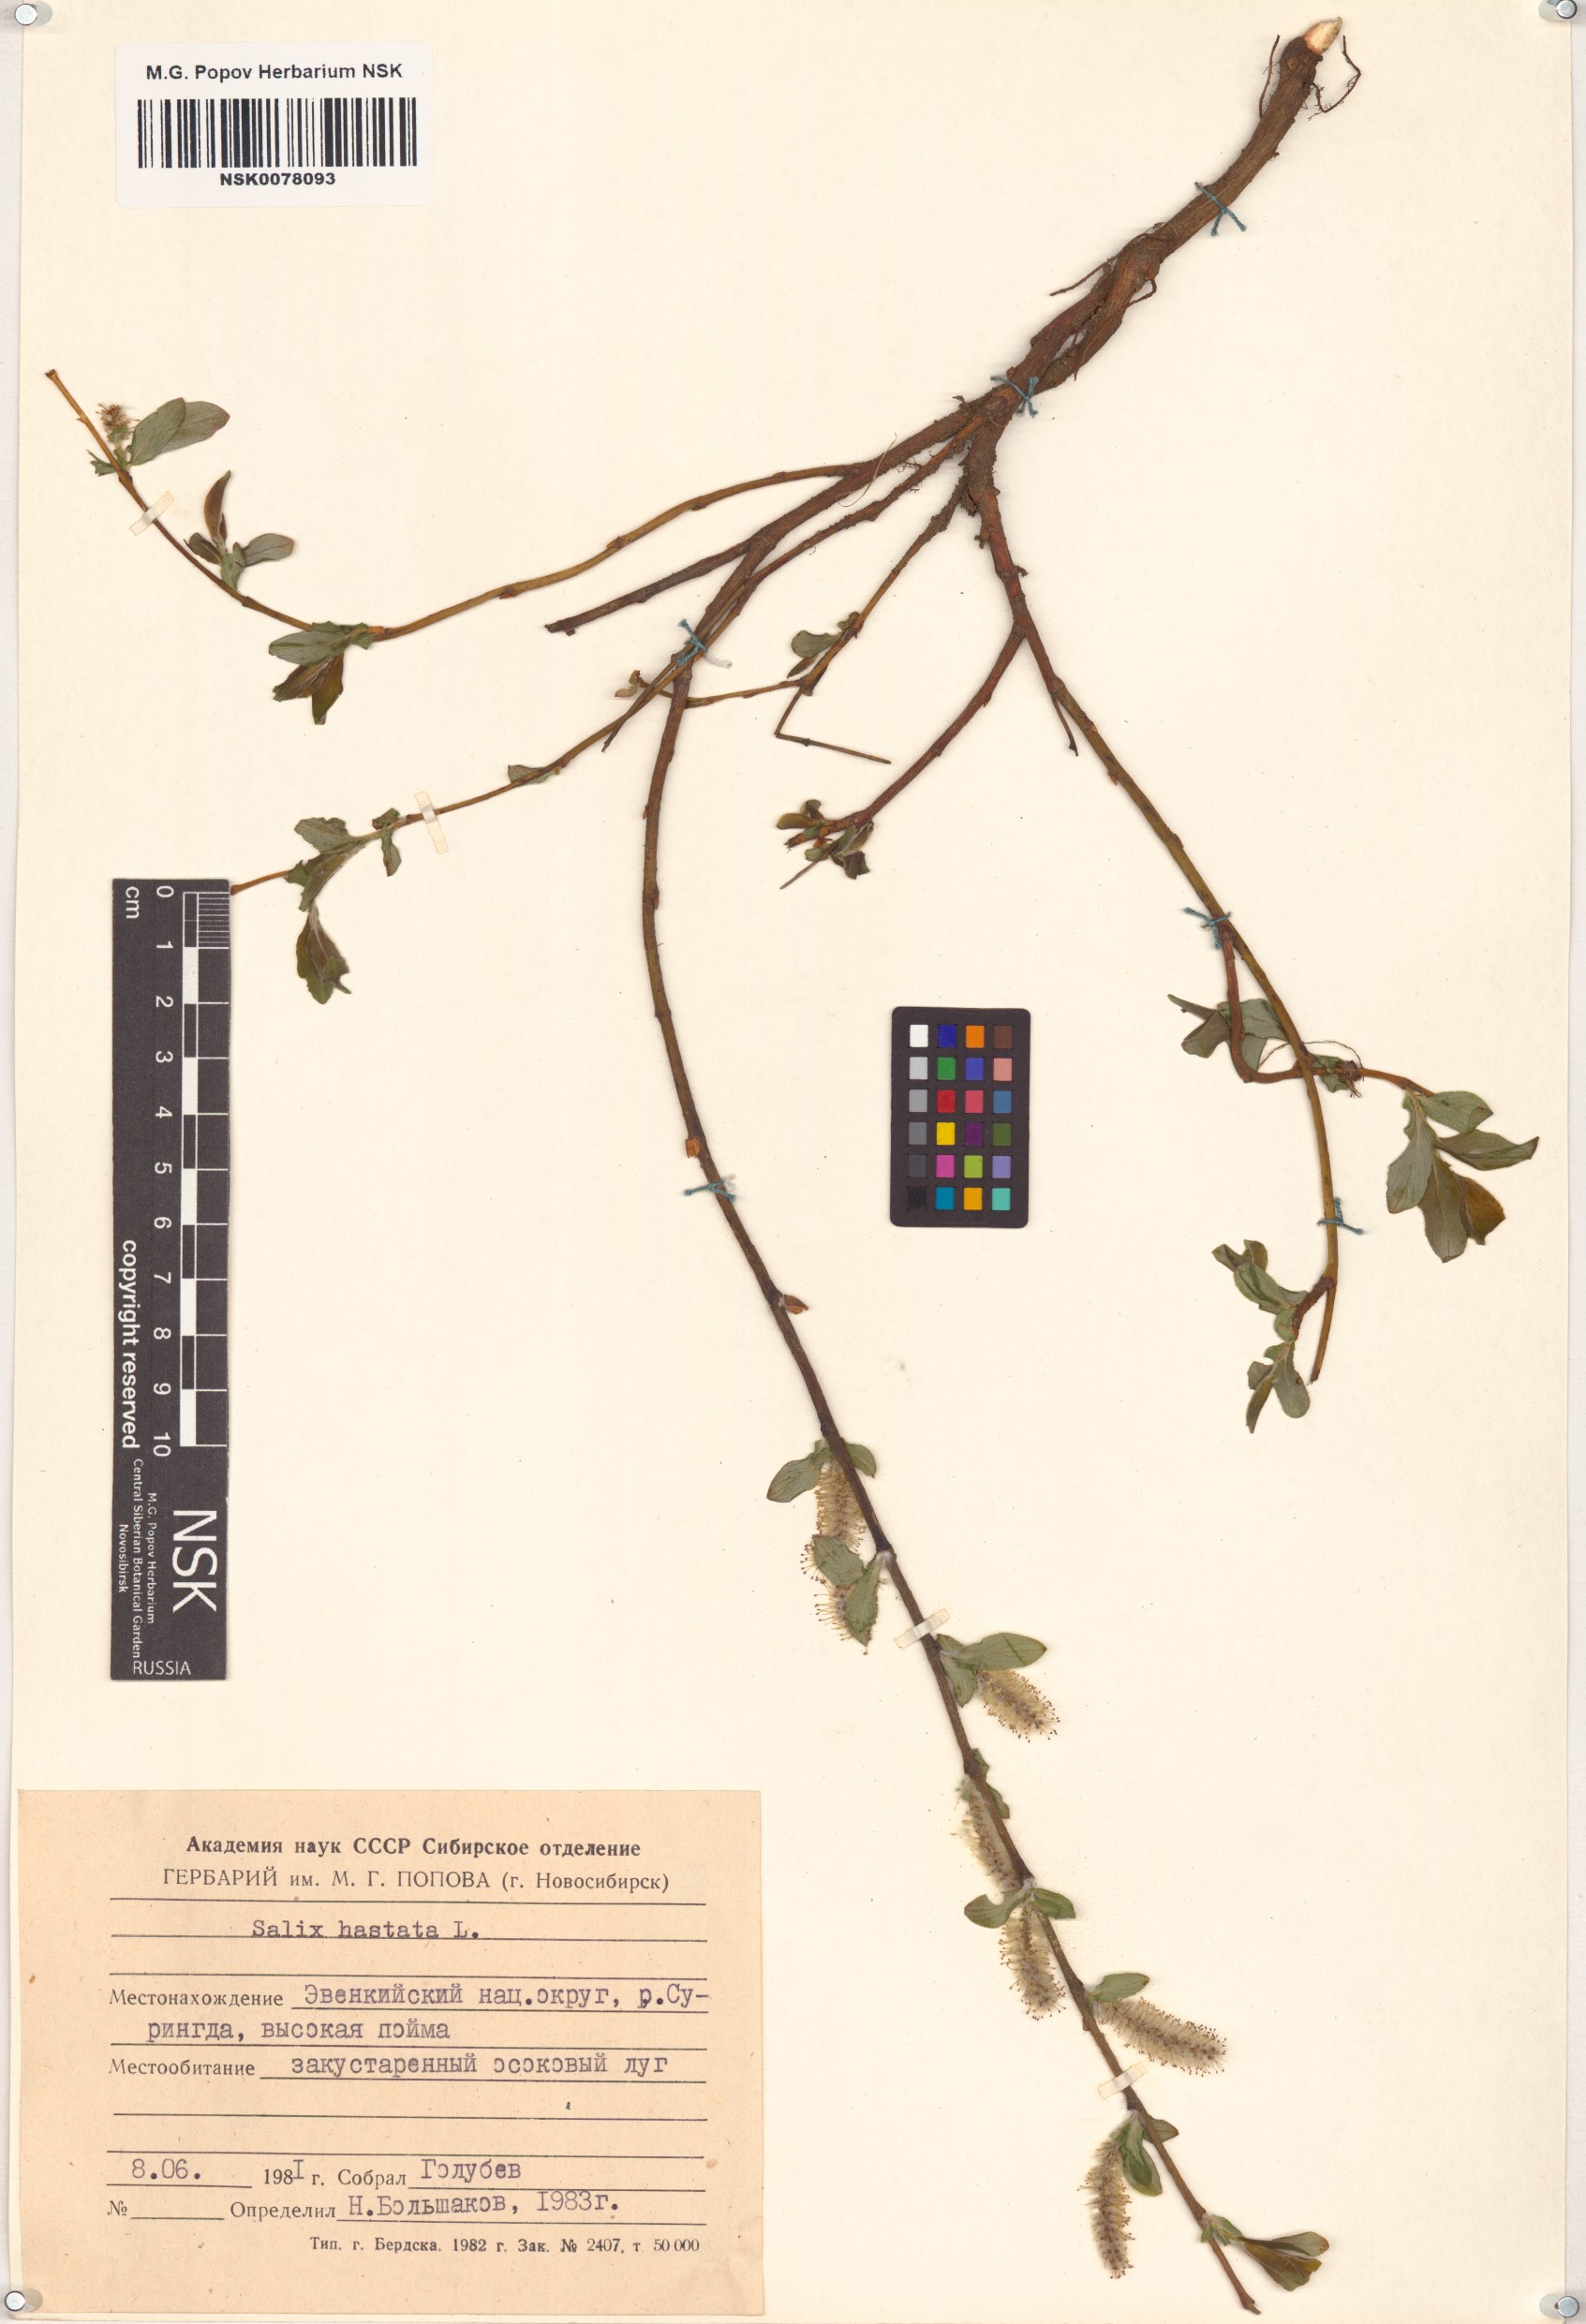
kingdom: Plantae
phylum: Tracheophyta
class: Magnoliopsida
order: Malpighiales
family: Salicaceae
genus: Salix
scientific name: Salix hastata
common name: Halberd willow
